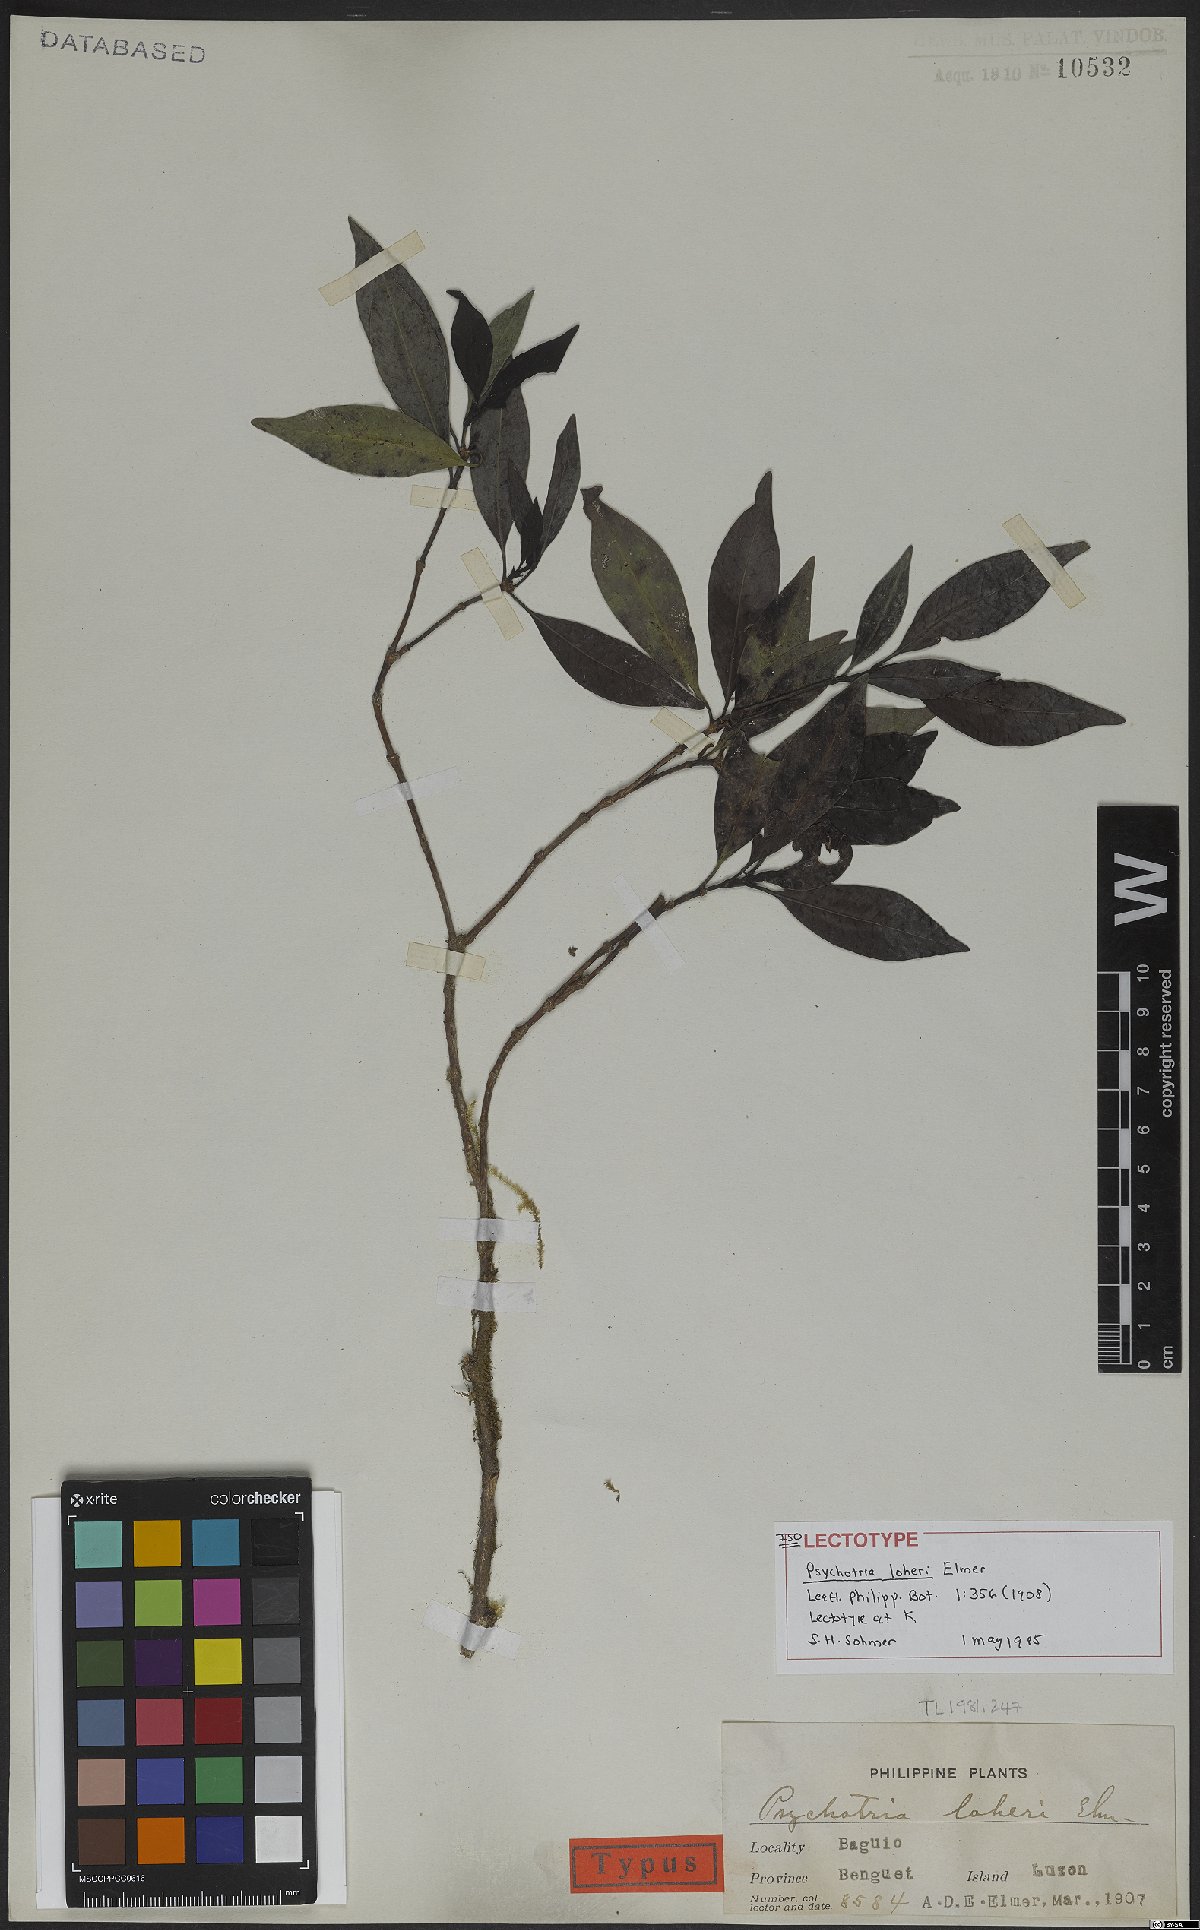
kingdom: Plantae
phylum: Tracheophyta
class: Magnoliopsida
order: Gentianales
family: Rubiaceae
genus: Psychotria
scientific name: Psychotria loheri
